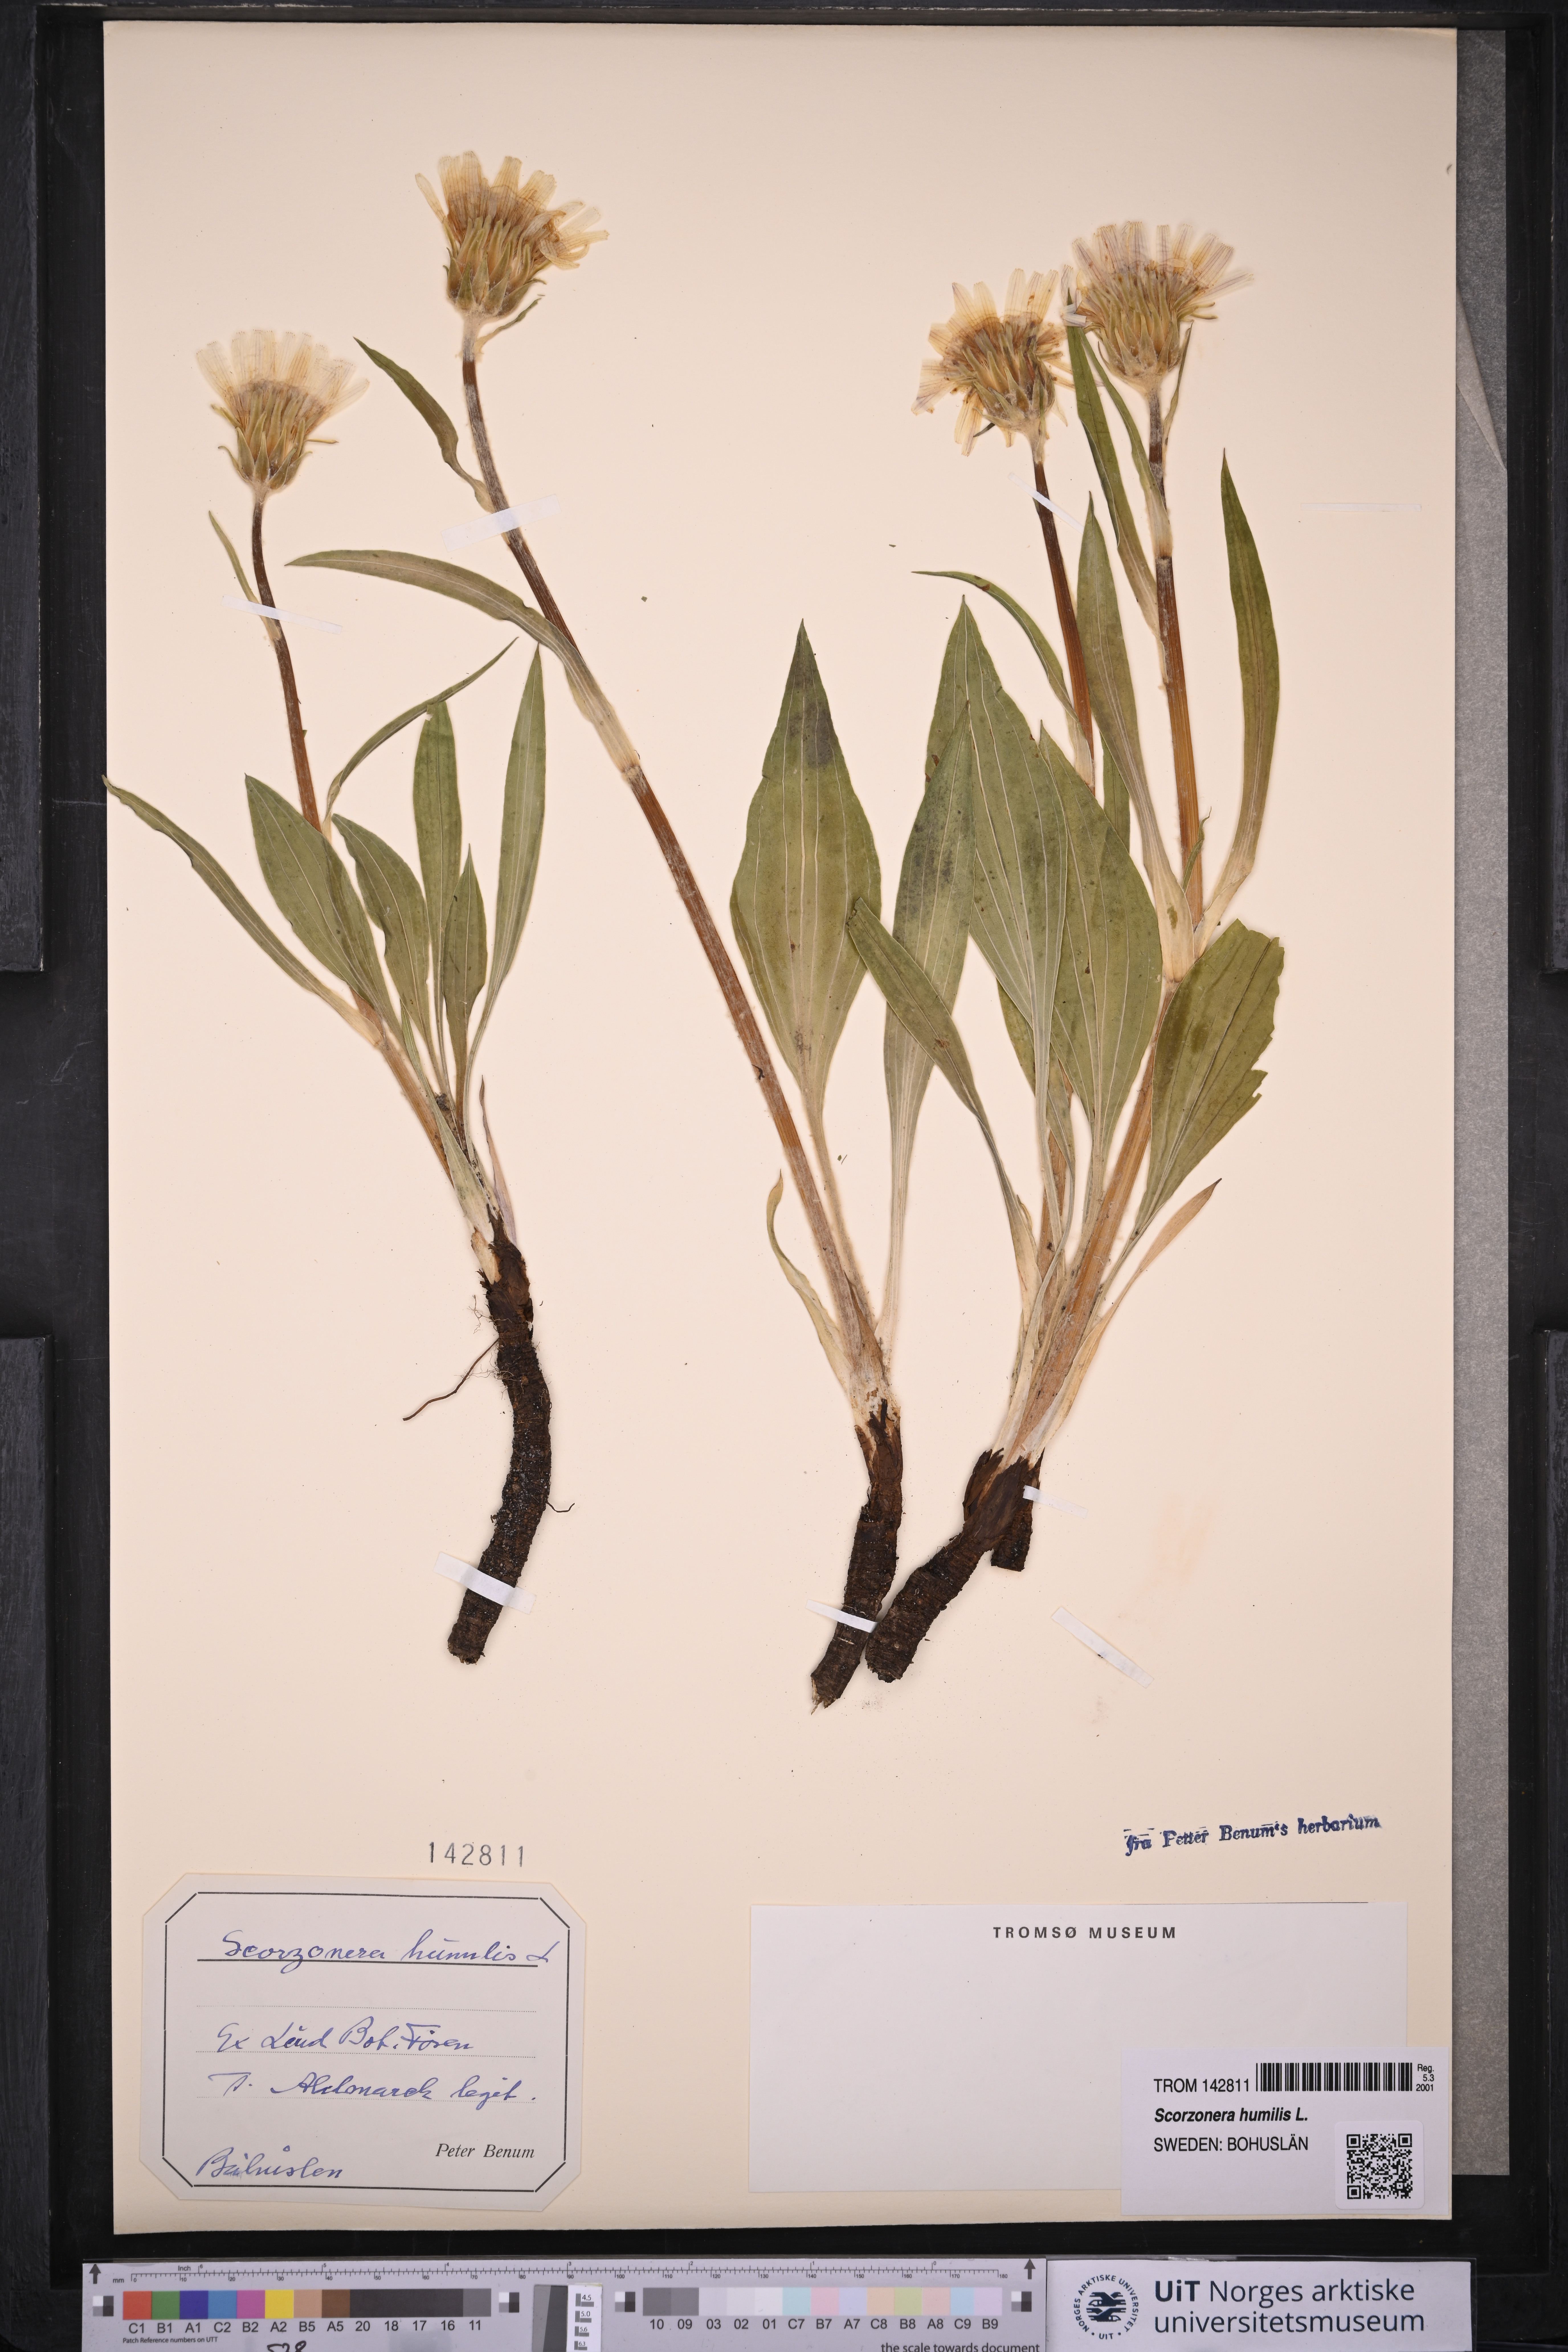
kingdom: Plantae
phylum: Tracheophyta
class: Magnoliopsida
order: Asterales
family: Asteraceae
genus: Scorzonera
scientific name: Scorzonera humilis
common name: Viper's-grass
